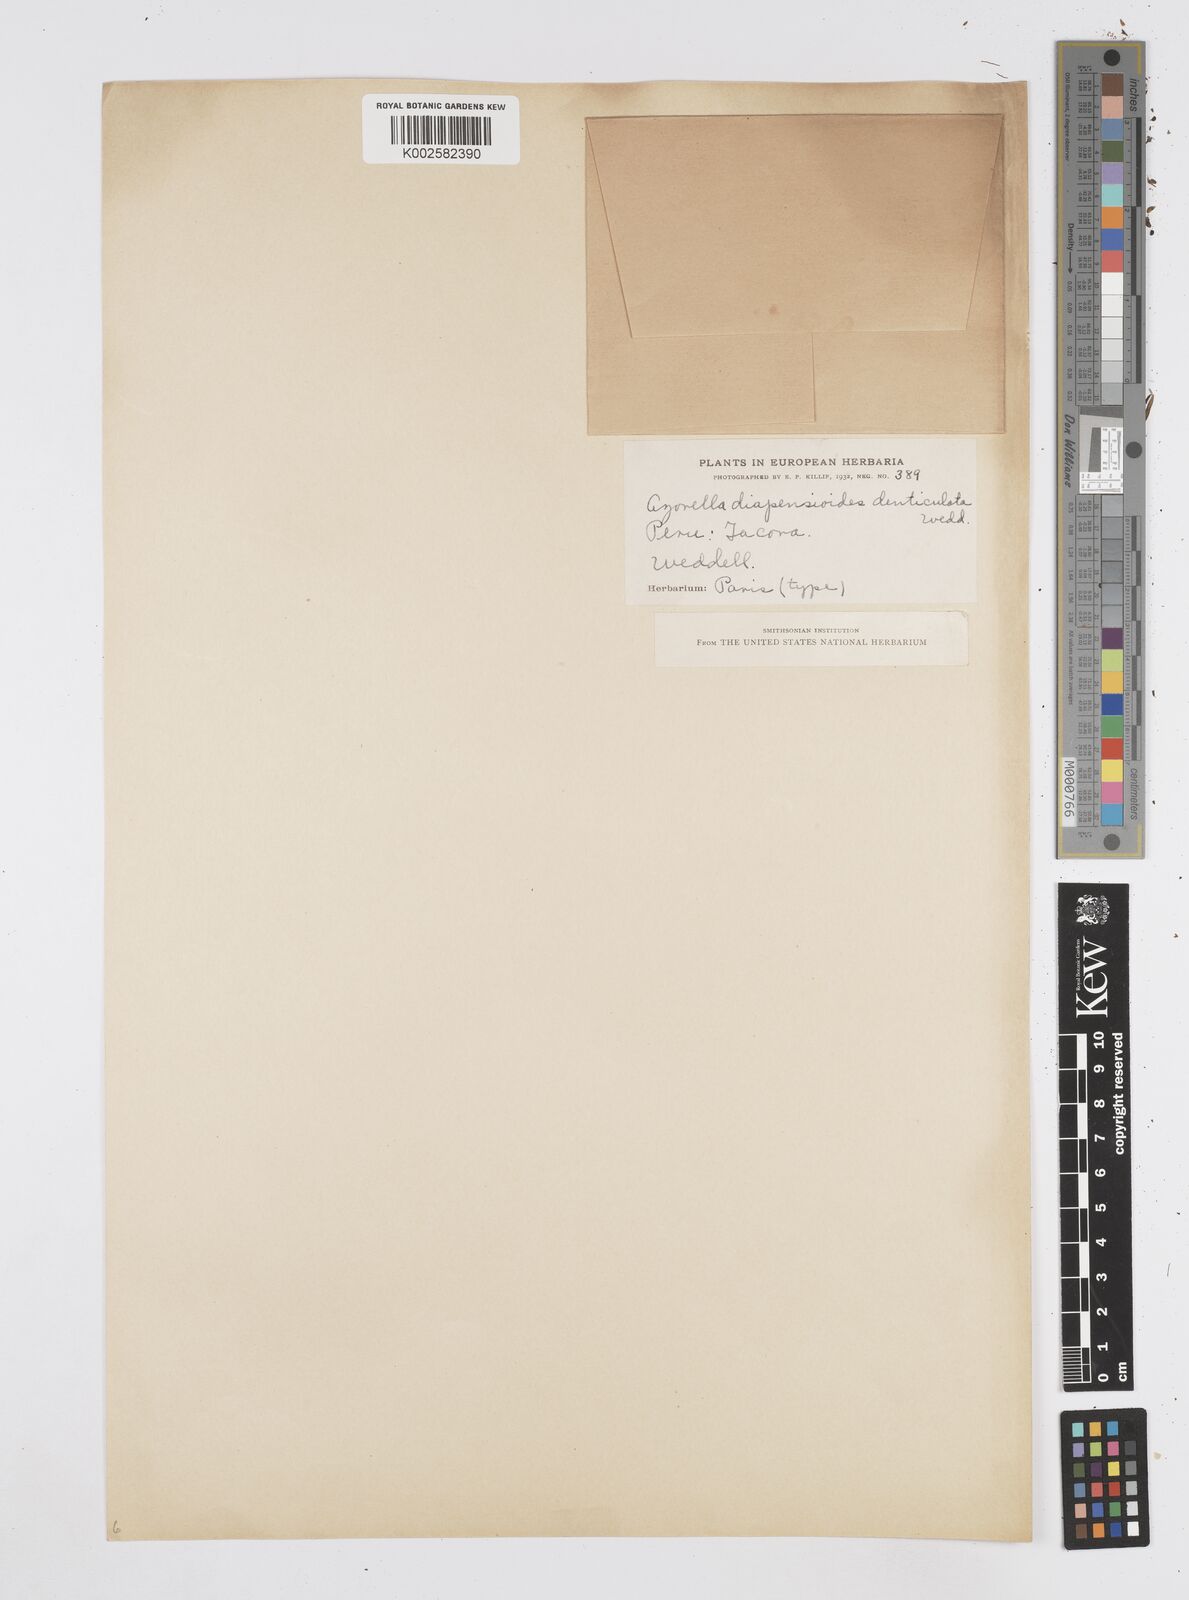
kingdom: Plantae
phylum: Tracheophyta
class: Magnoliopsida
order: Apiales
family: Apiaceae
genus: Azorella
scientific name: Azorella diapensioides
